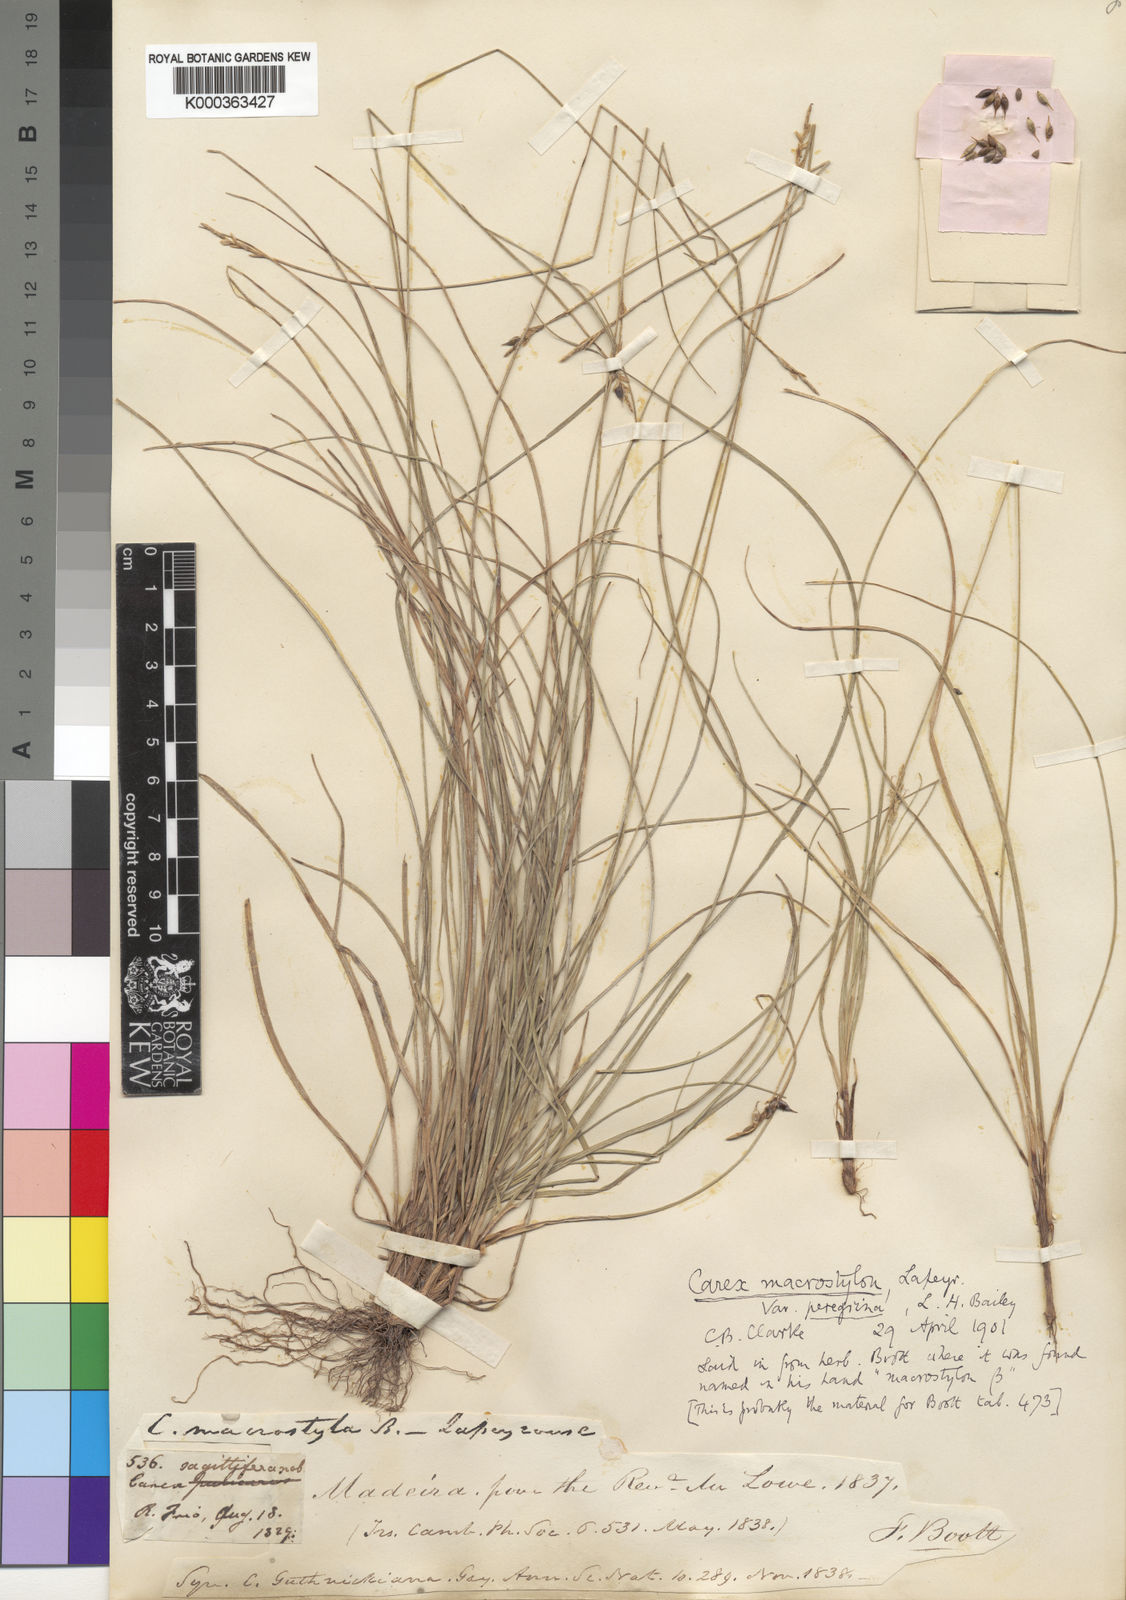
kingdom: Plantae
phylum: Tracheophyta
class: Liliopsida
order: Poales
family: Cyperaceae
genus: Carex
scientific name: Carex peregrina
